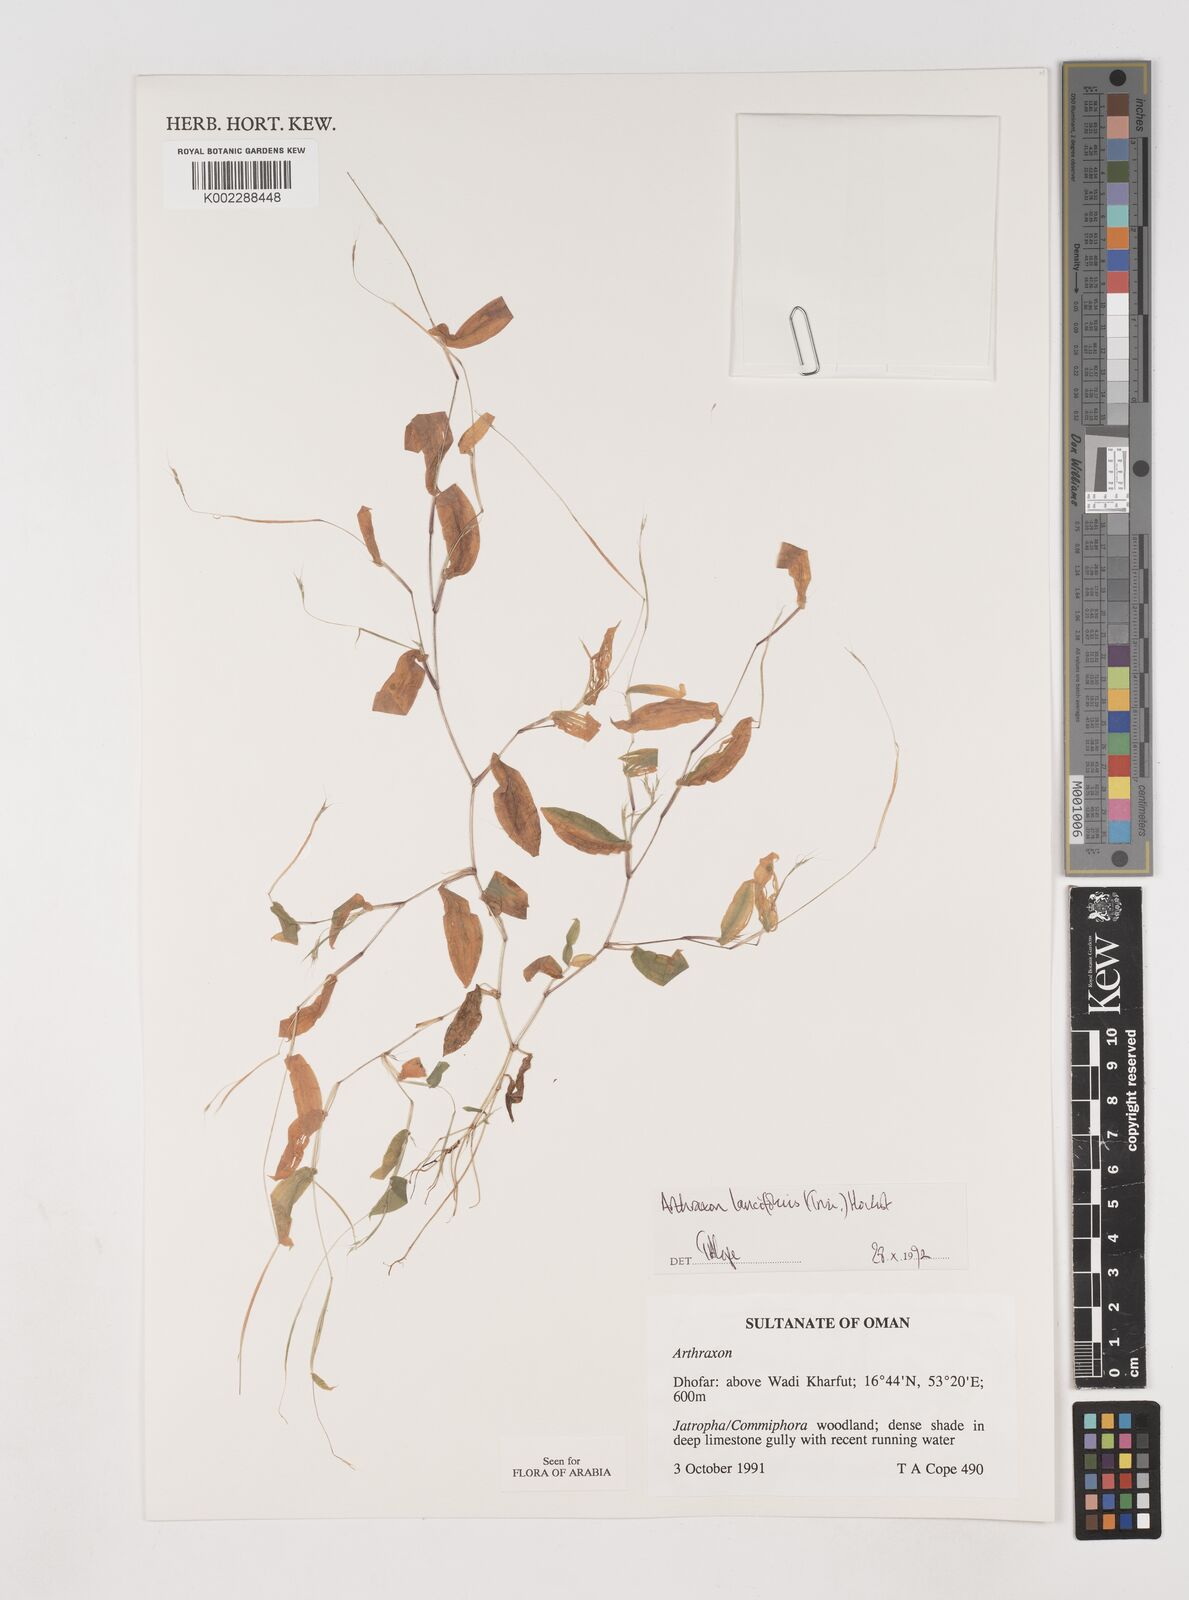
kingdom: Plantae
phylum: Tracheophyta
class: Liliopsida
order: Poales
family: Poaceae
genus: Arthraxon
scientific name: Arthraxon lancifolius
